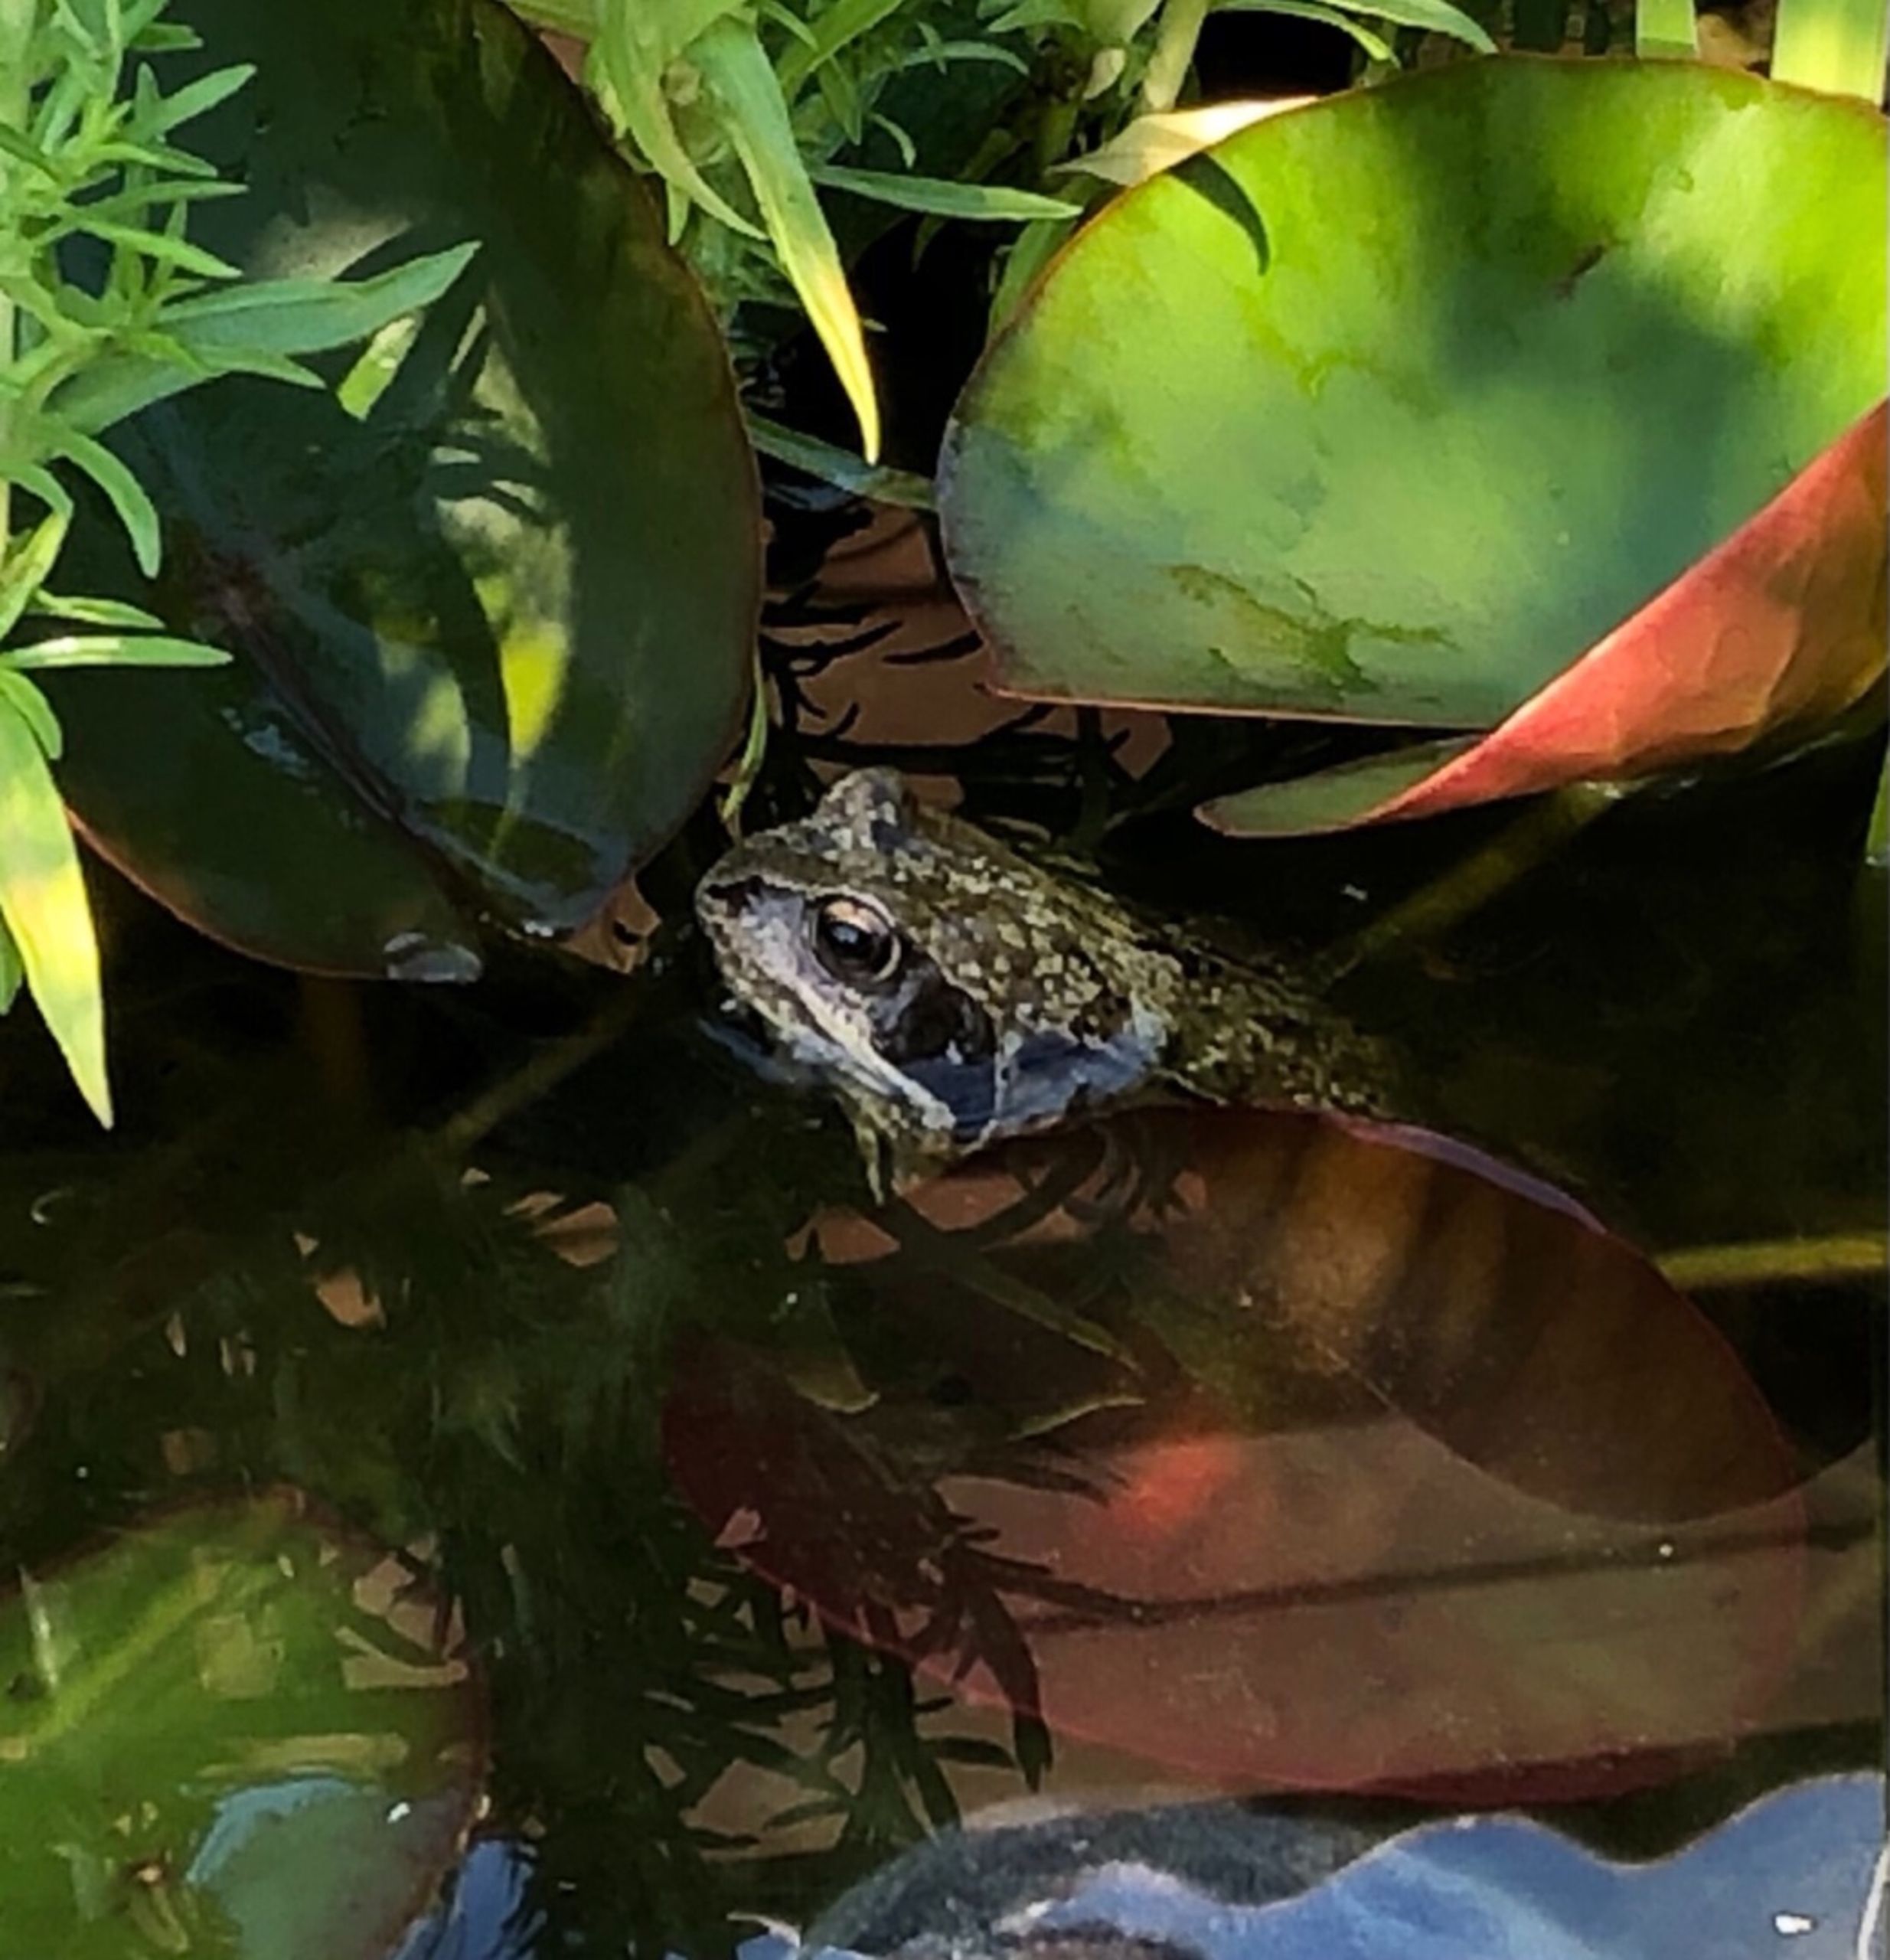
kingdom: Animalia
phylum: Chordata
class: Amphibia
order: Anura
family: Ranidae
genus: Rana
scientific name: Rana temporaria
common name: Butsnudet frø
